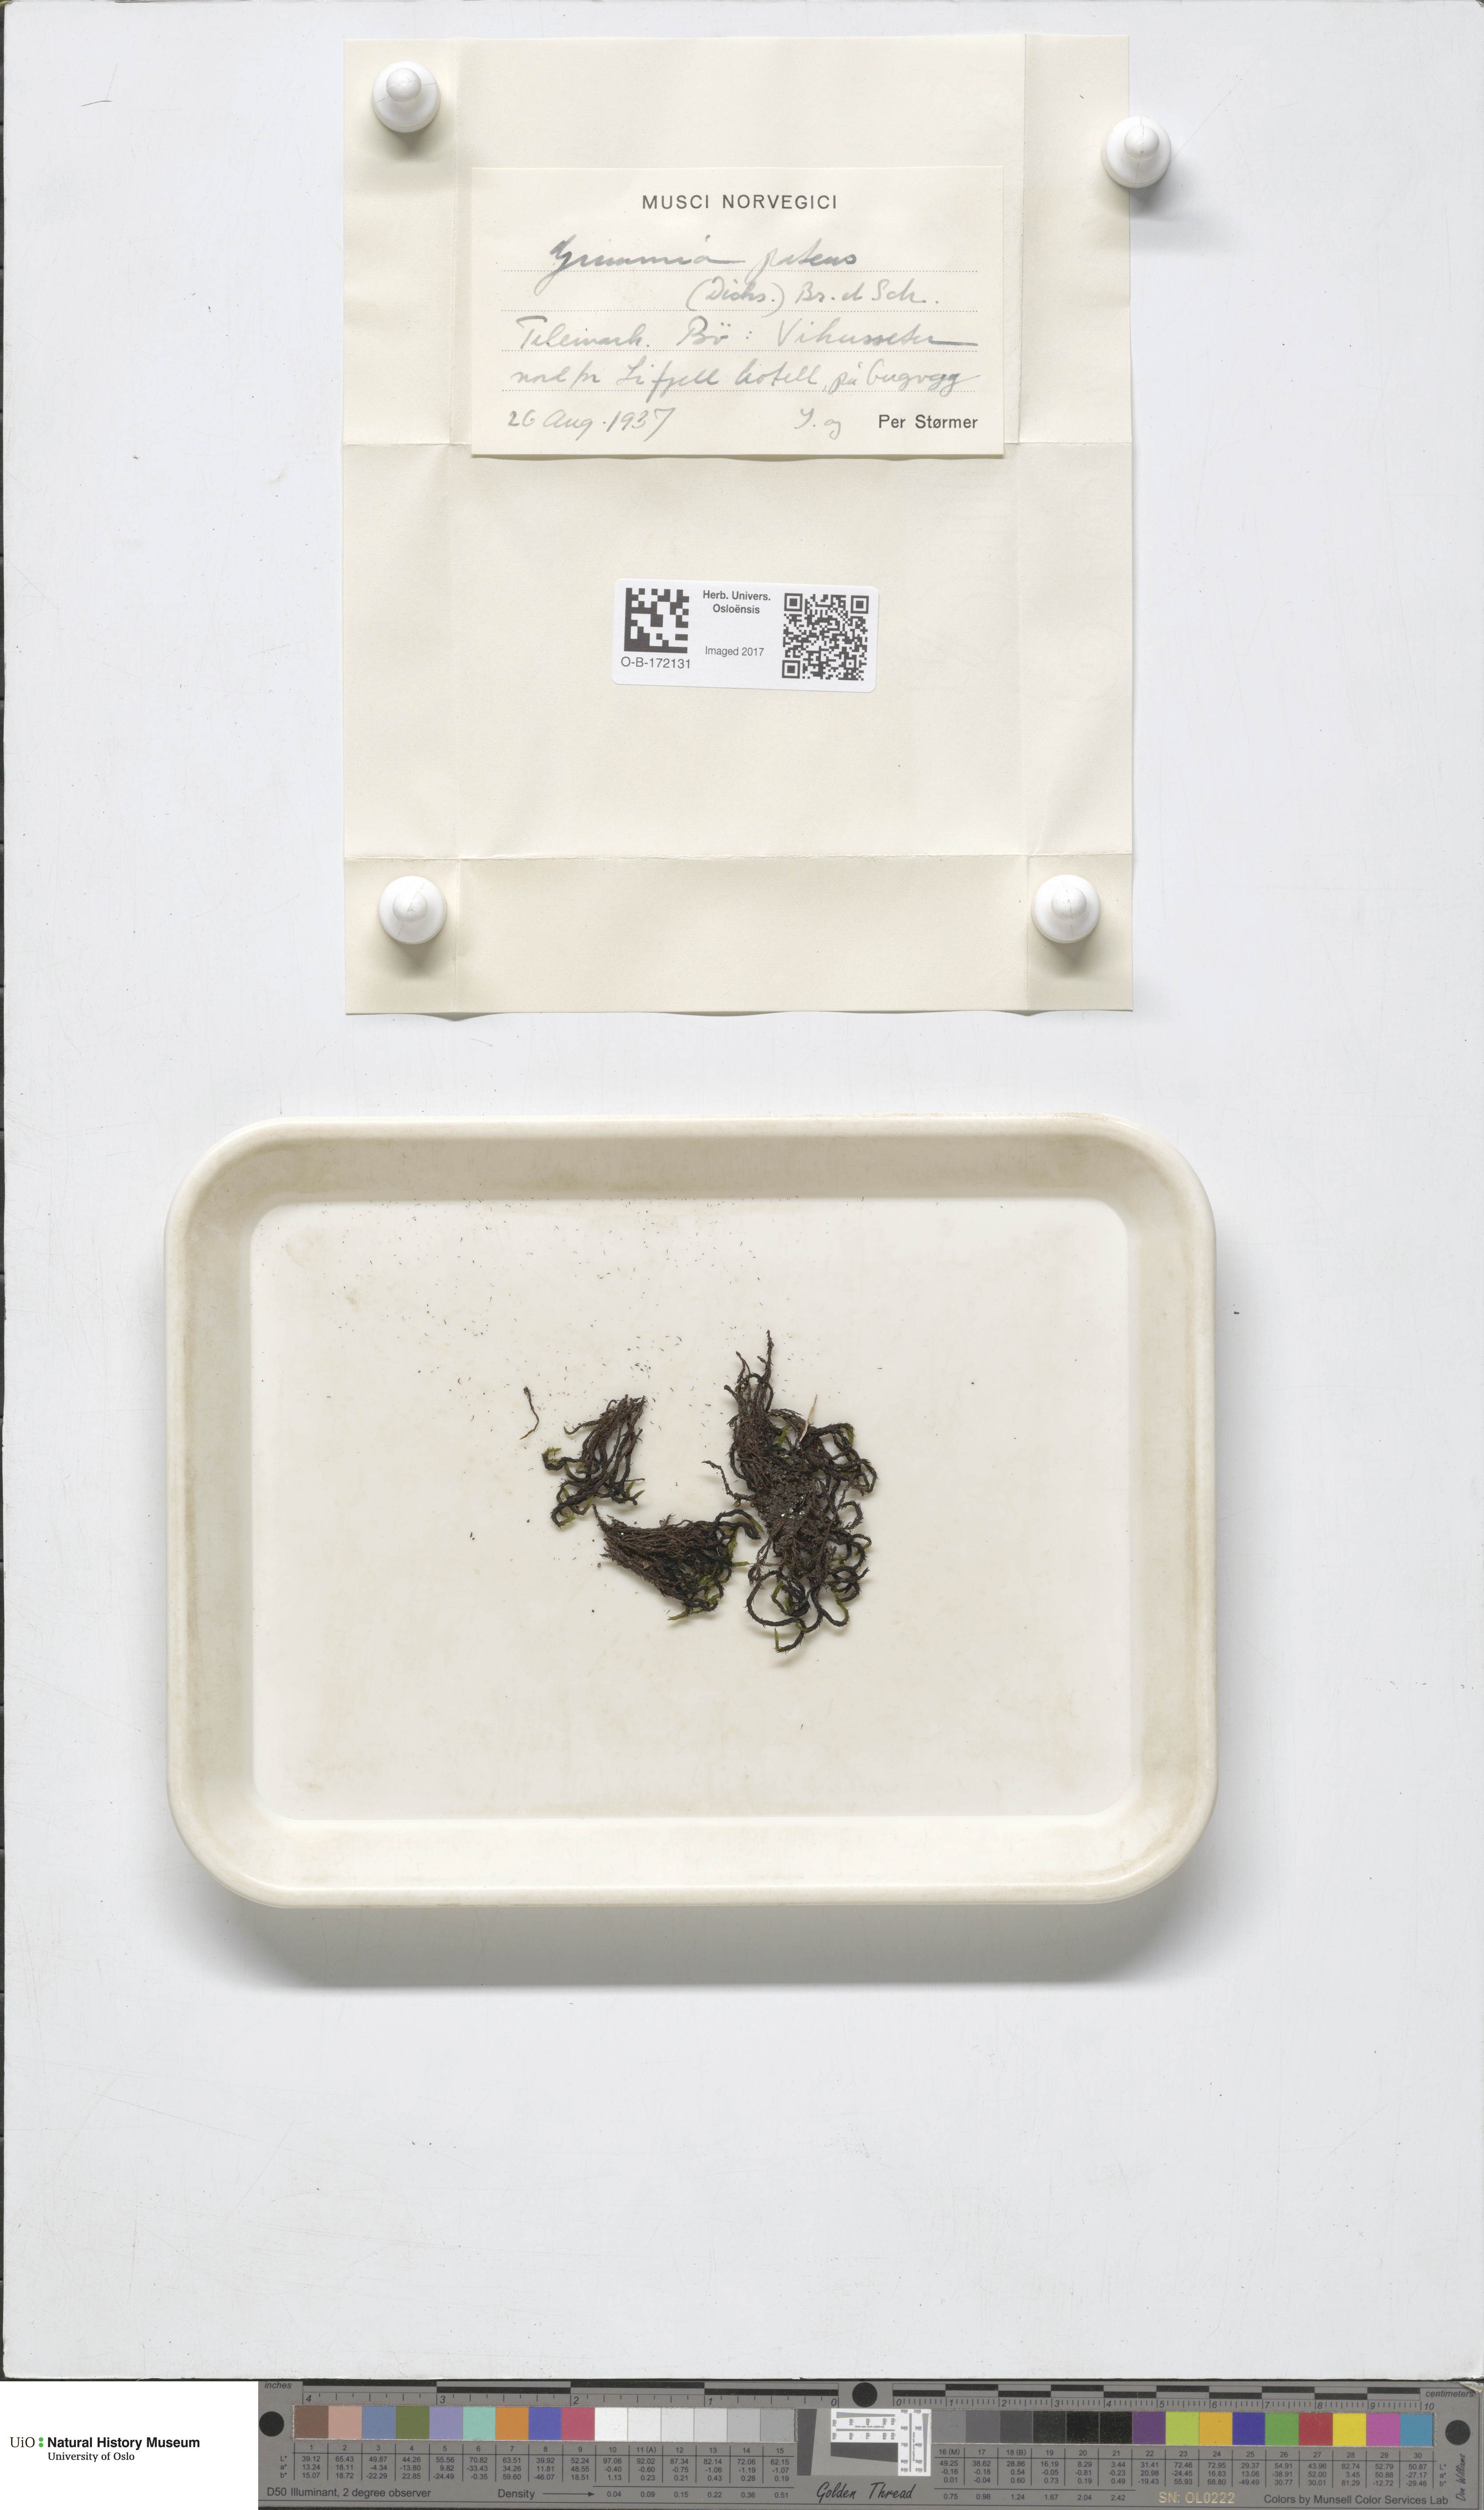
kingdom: Plantae
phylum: Bryophyta
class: Bryopsida
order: Grimmiales
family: Grimmiaceae
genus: Grimmia
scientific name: Grimmia ramondii
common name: Spreading-leaved grimmia
